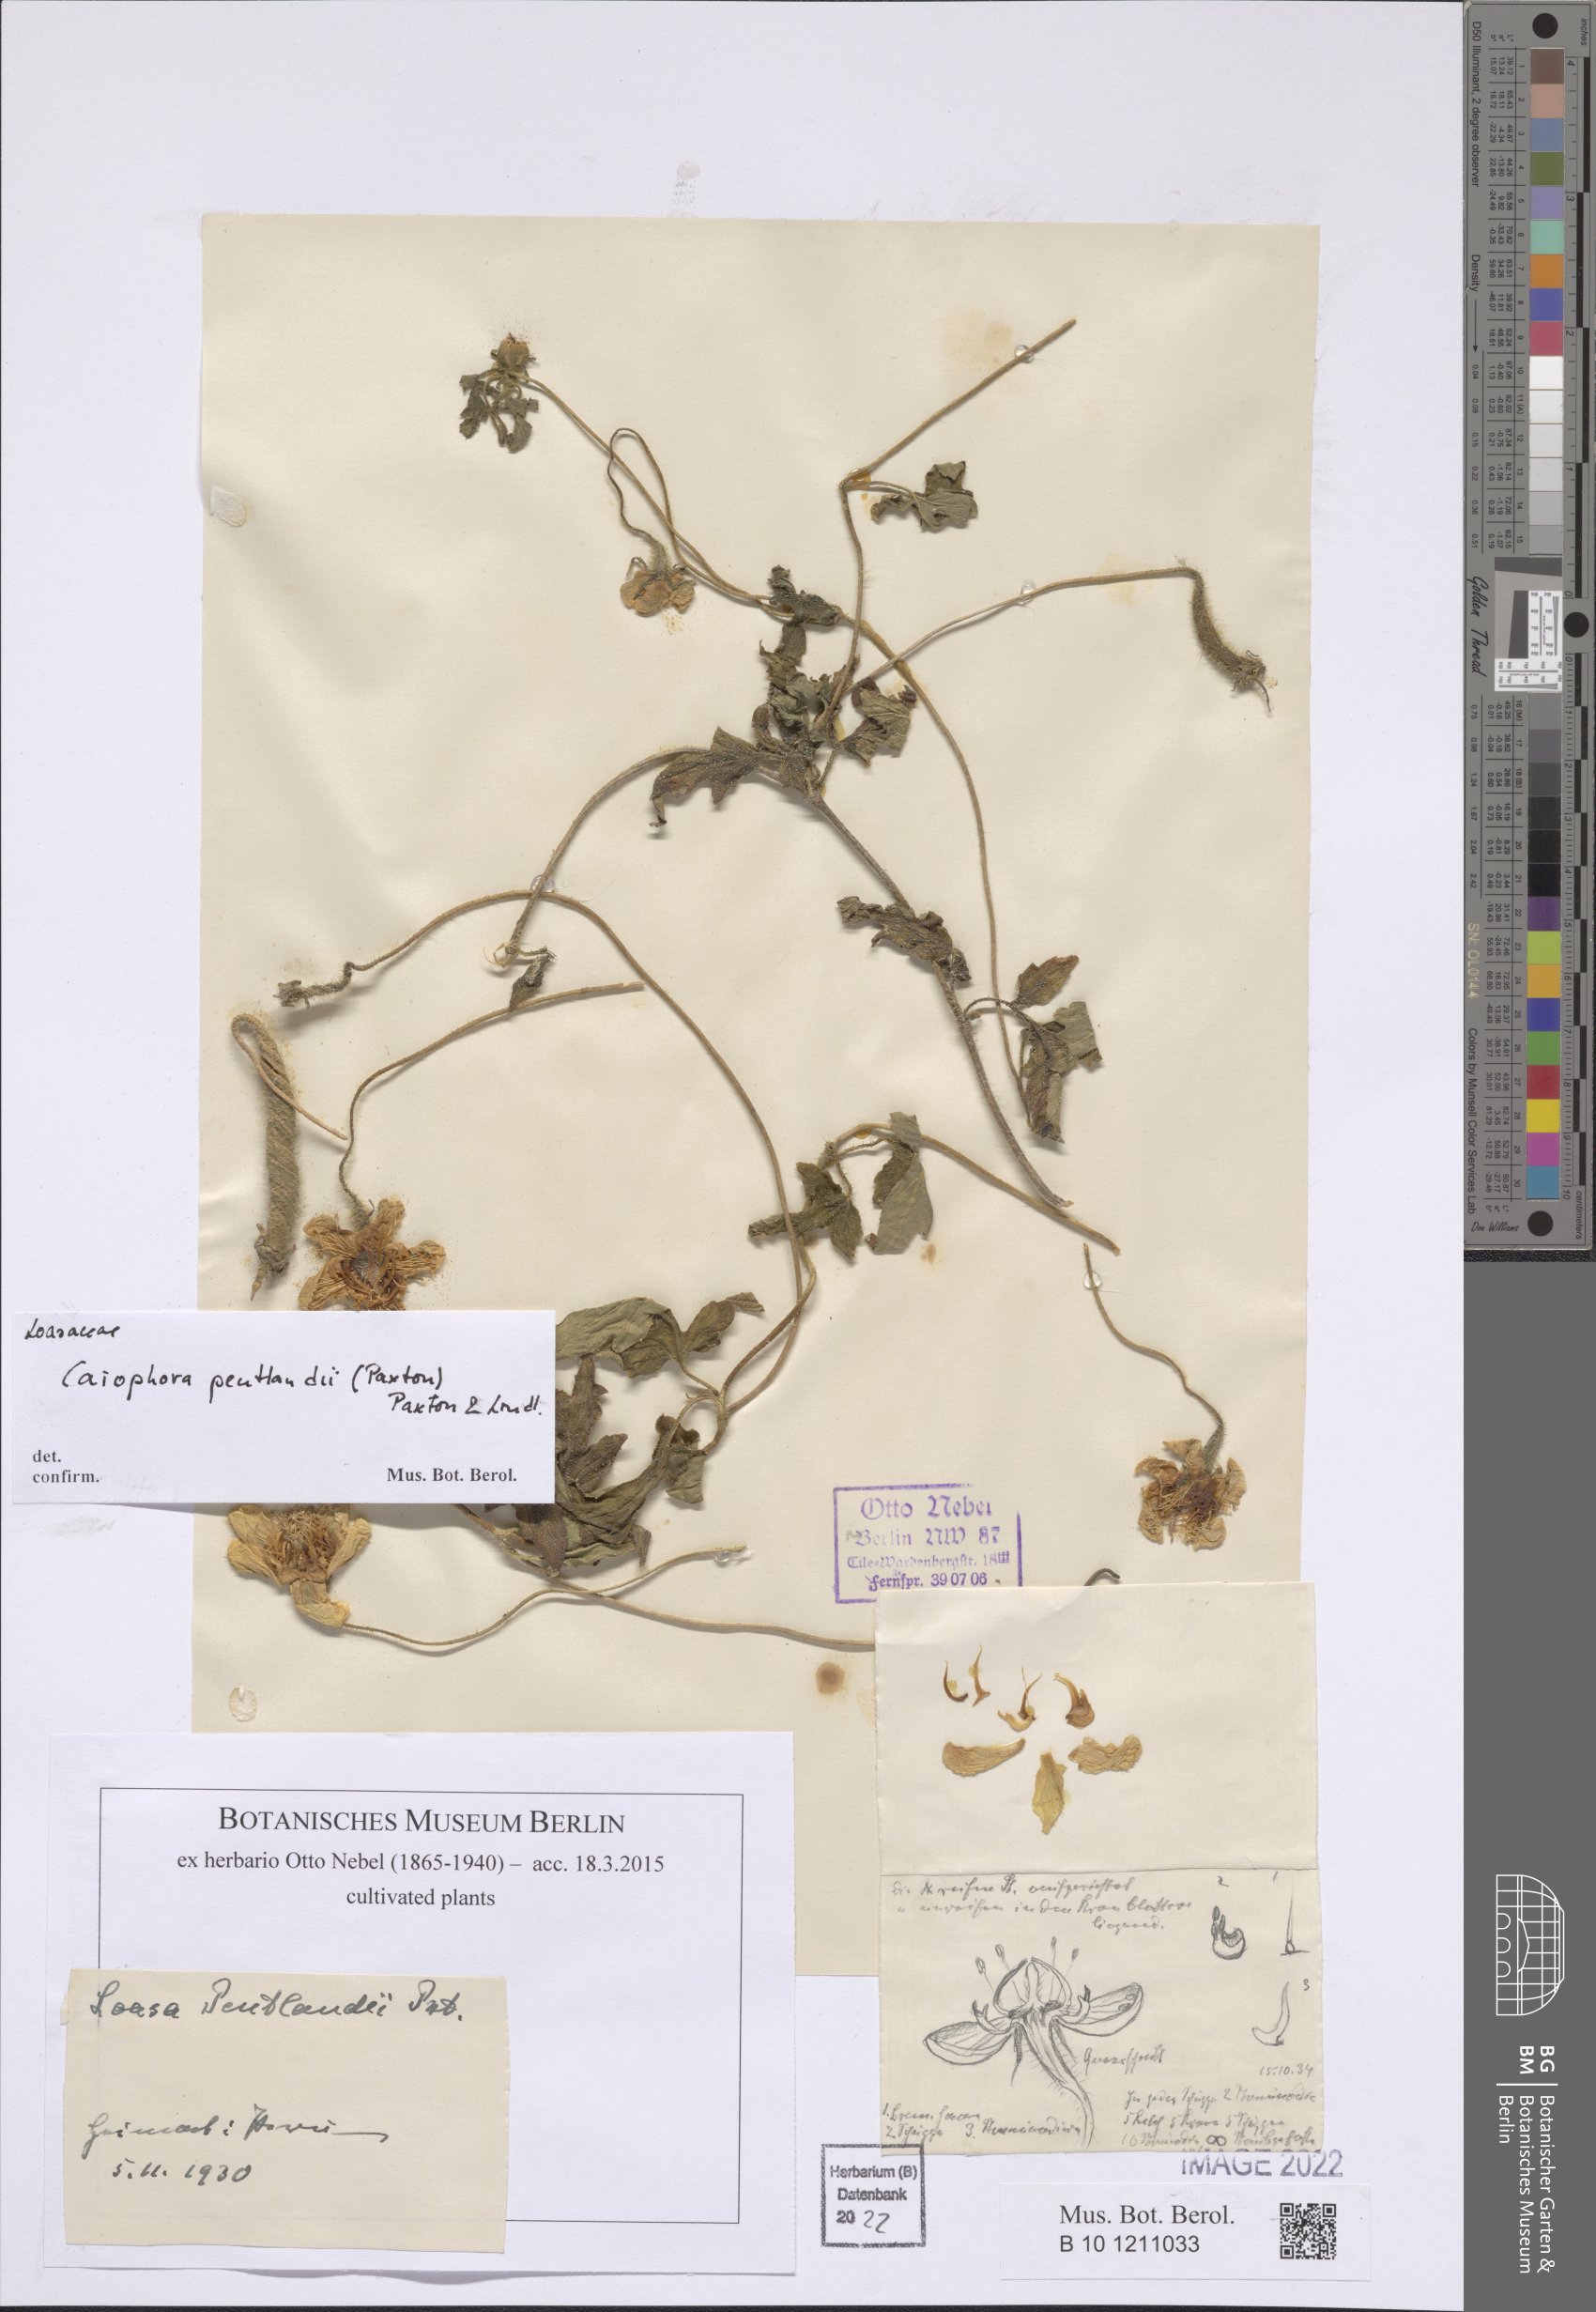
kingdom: Plantae
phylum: Tracheophyta
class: Magnoliopsida
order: Cornales
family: Loasaceae
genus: Caiophora
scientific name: Caiophora pentlandii
